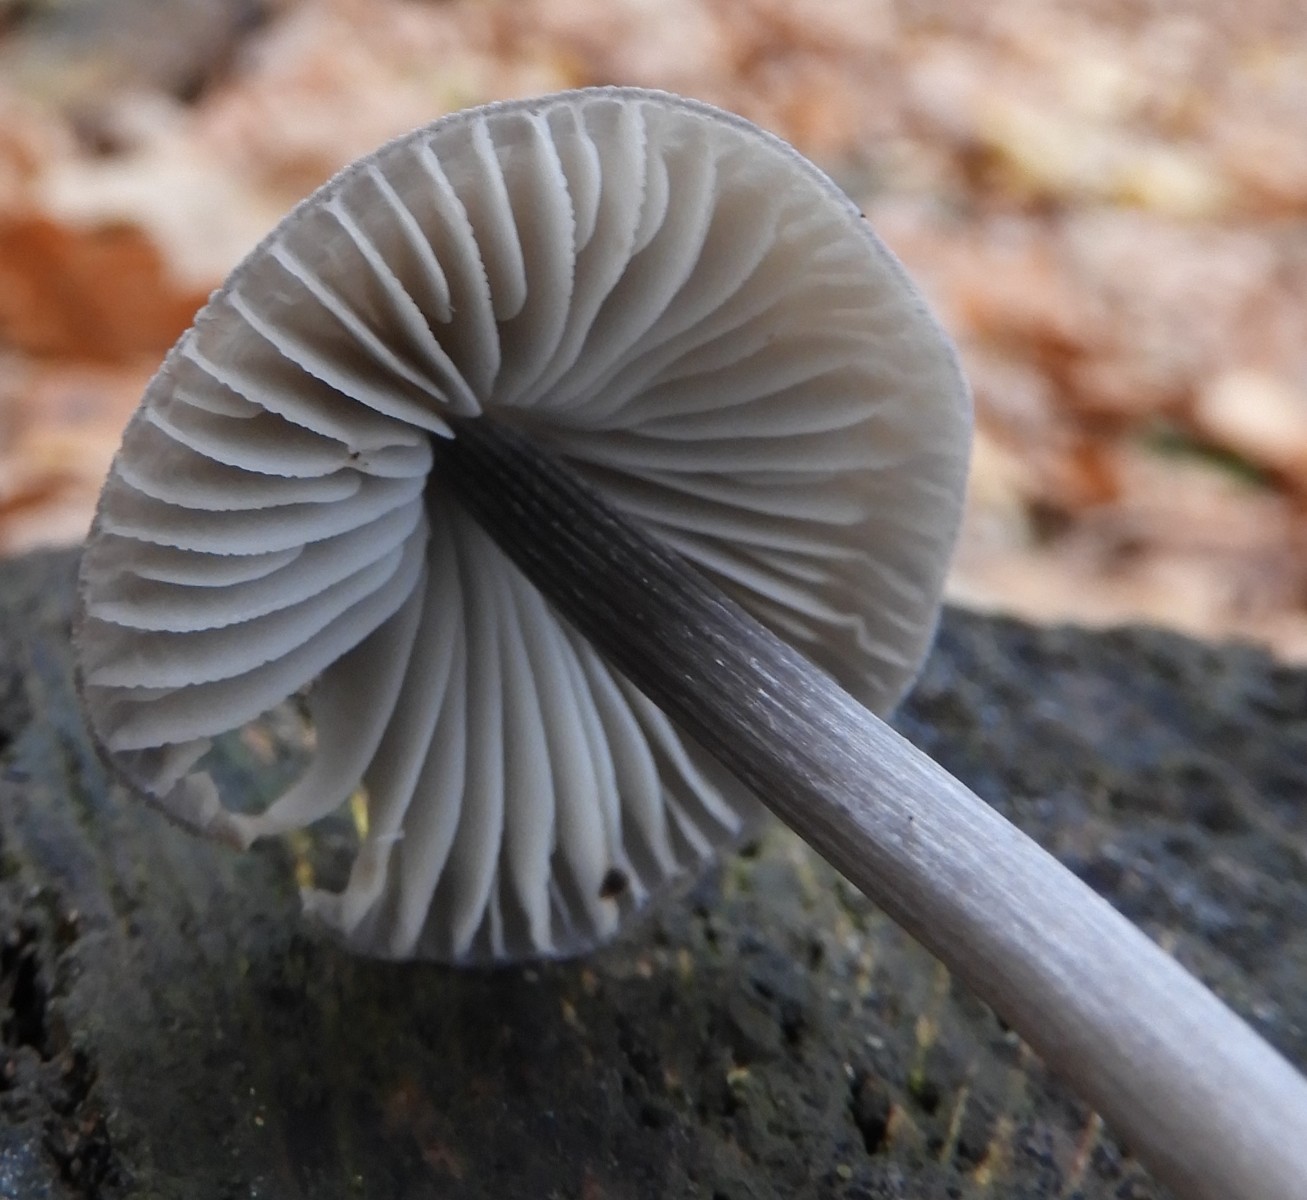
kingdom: Fungi
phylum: Basidiomycota
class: Agaricomycetes
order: Agaricales
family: Mycenaceae
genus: Mycena
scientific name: Mycena polygramma
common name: mangestribet huesvamp
